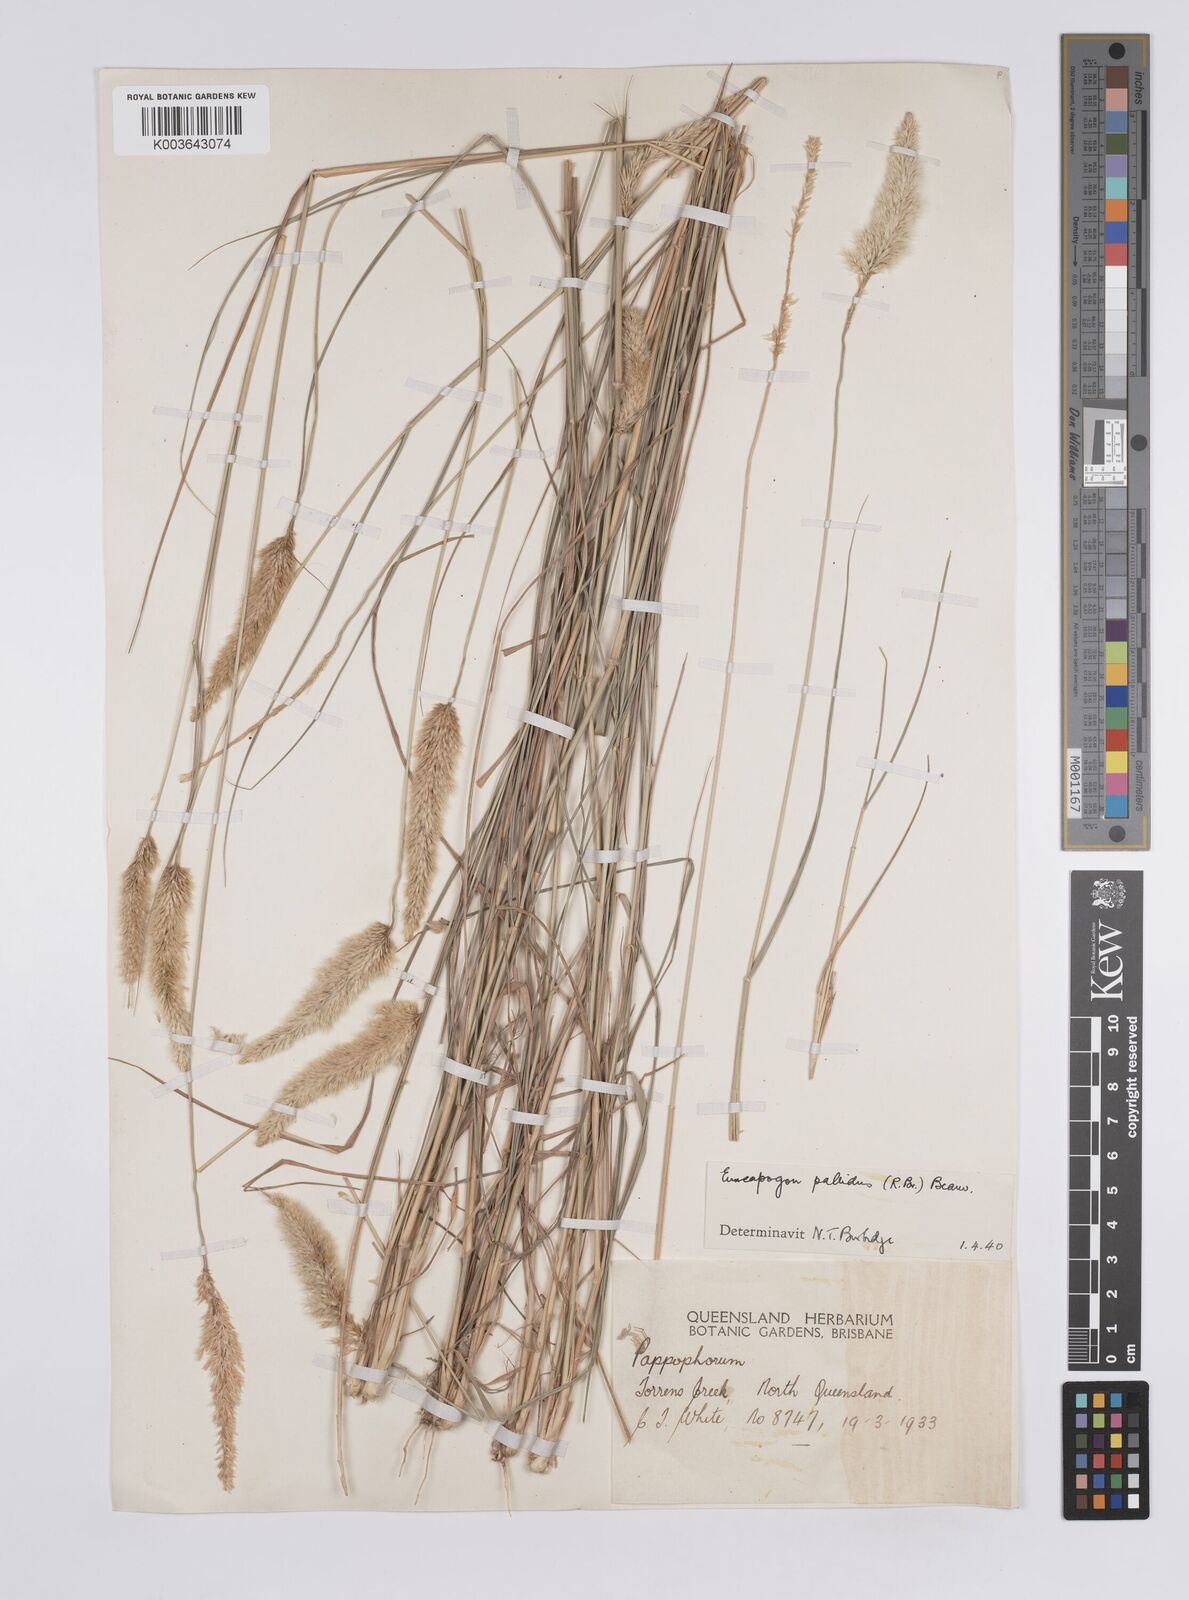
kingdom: Plantae
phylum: Tracheophyta
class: Liliopsida
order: Poales
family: Poaceae
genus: Enneapogon
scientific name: Enneapogon pallidus
